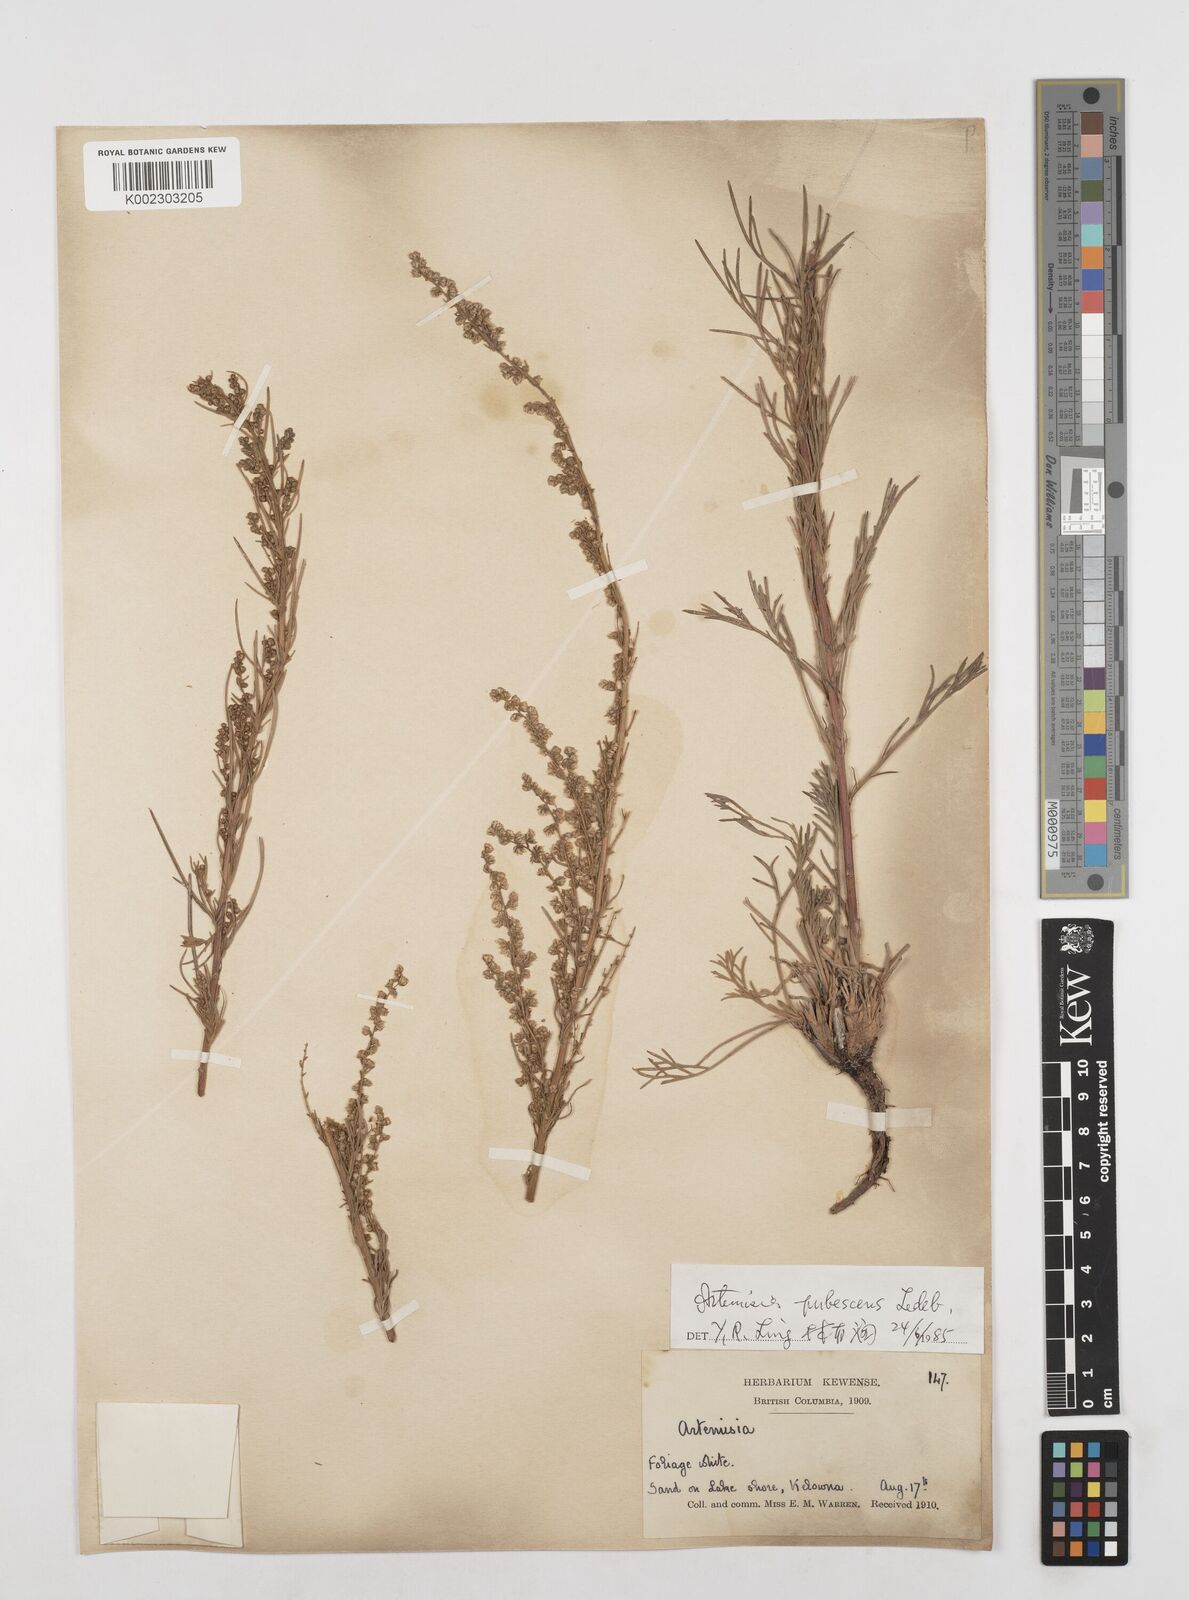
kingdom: Plantae
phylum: Tracheophyta
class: Magnoliopsida
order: Asterales
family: Asteraceae
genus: Artemisia
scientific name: Artemisia campestris
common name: Field wormwood
